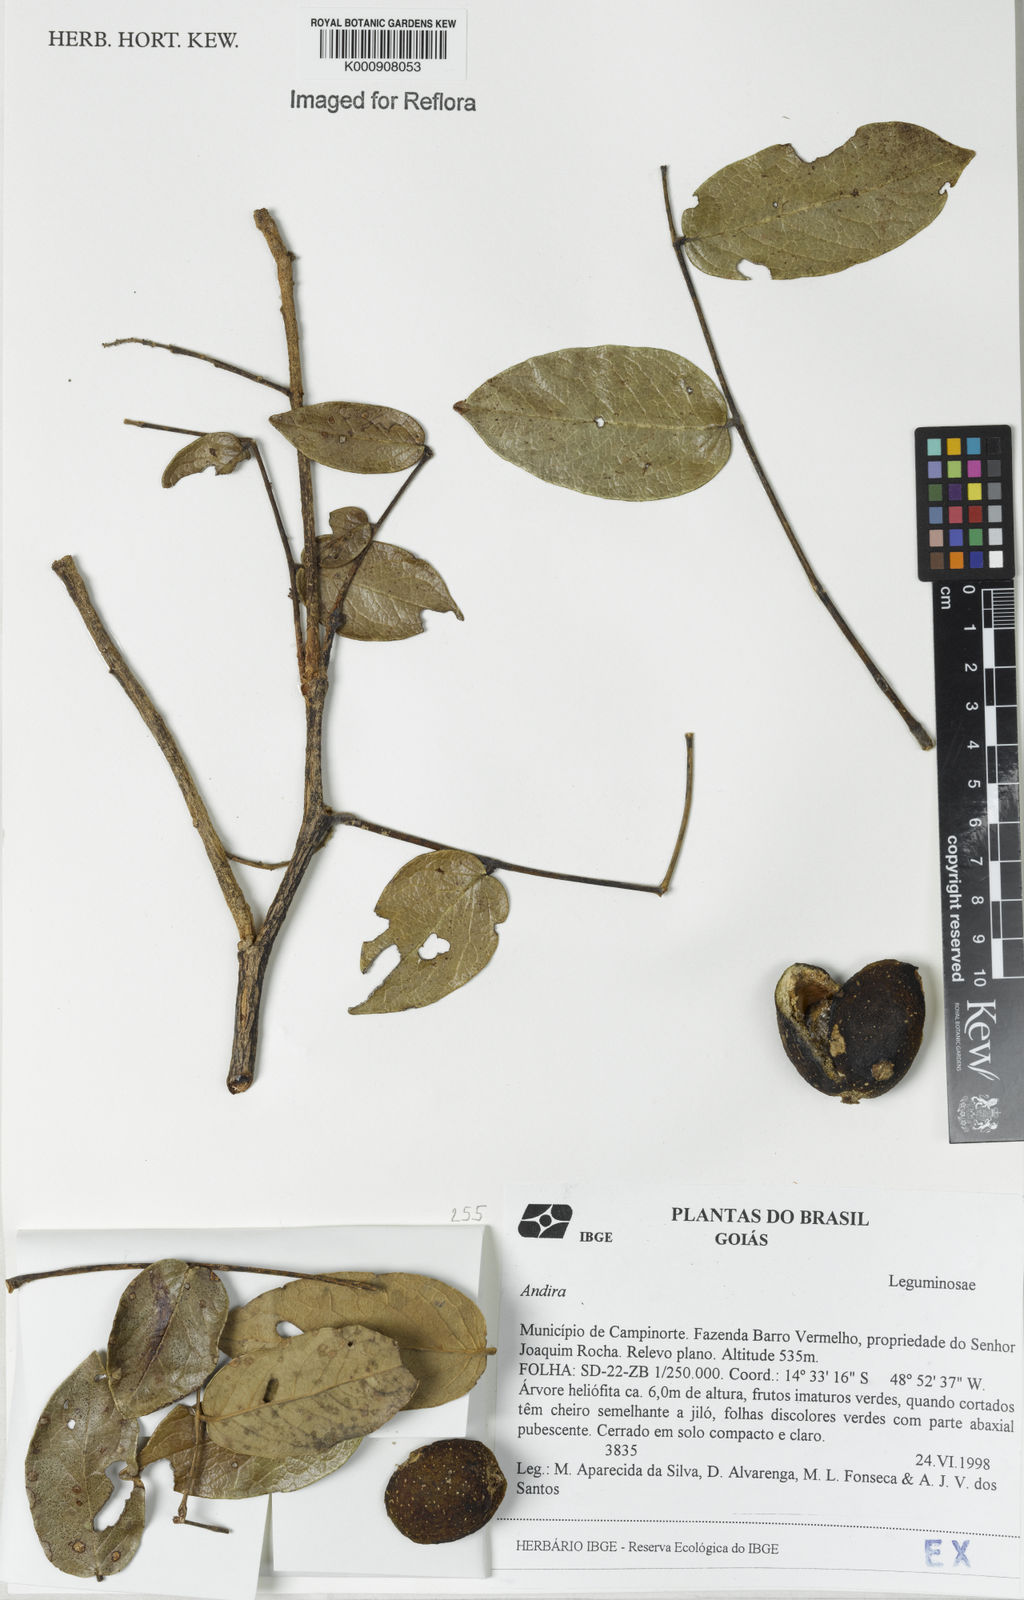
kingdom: Plantae
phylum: Tracheophyta
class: Magnoliopsida
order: Fabales
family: Fabaceae
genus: Andira
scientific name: Andira
